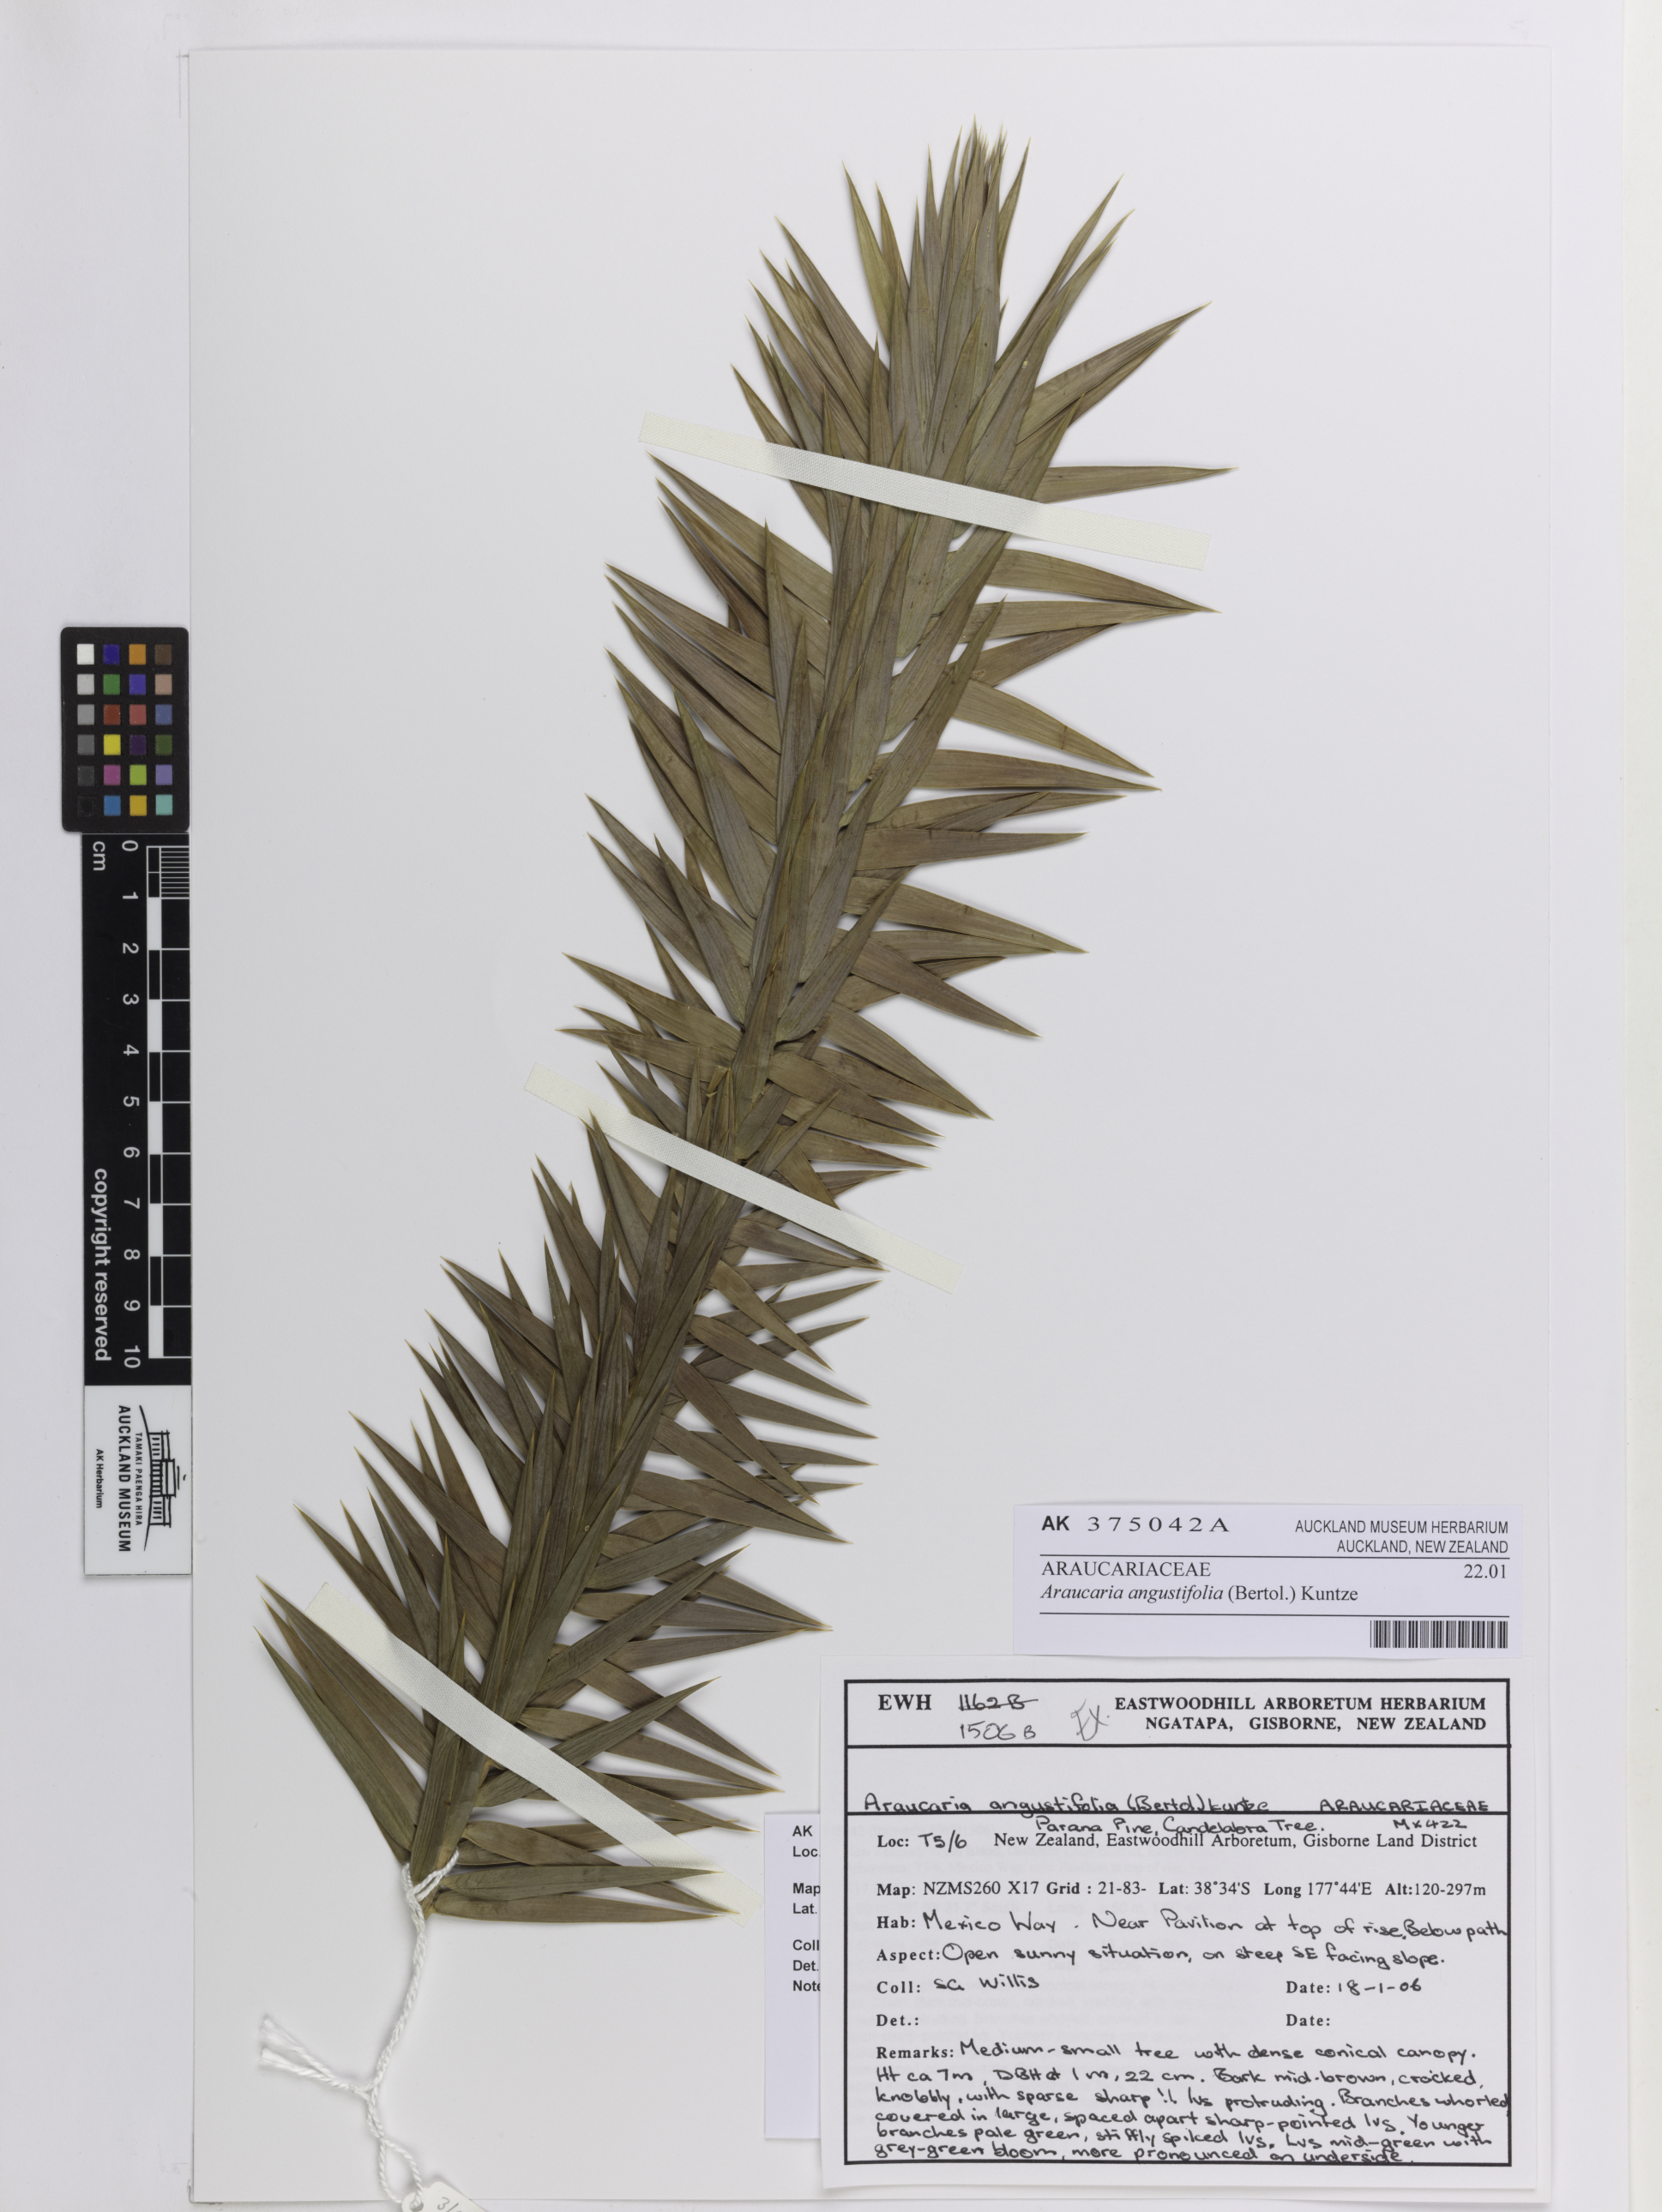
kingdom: Plantae
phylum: Tracheophyta
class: Pinopsida
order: Pinales
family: Araucariaceae
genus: Araucaria
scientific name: Araucaria angustifolia
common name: Candelabra tree
